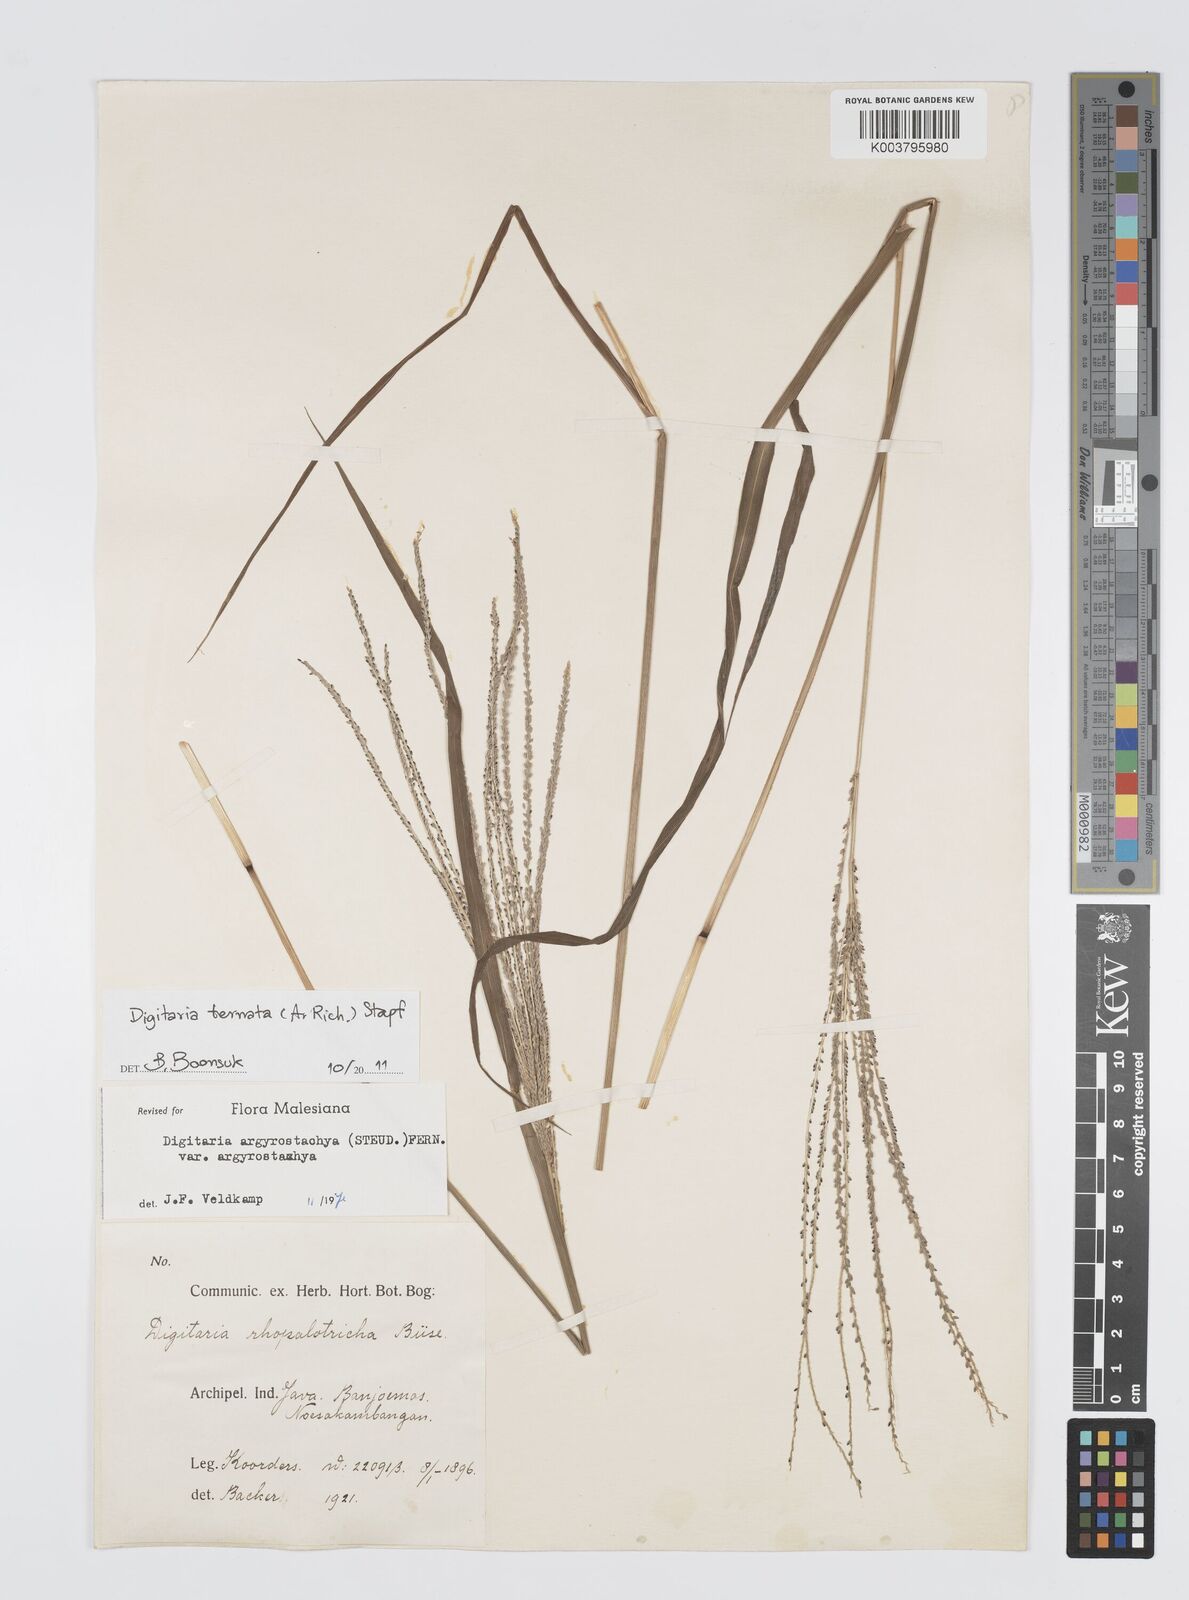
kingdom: Plantae
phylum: Tracheophyta
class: Liliopsida
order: Poales
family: Poaceae
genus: Digitaria
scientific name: Digitaria ternata
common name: Blackseed crabgrass
